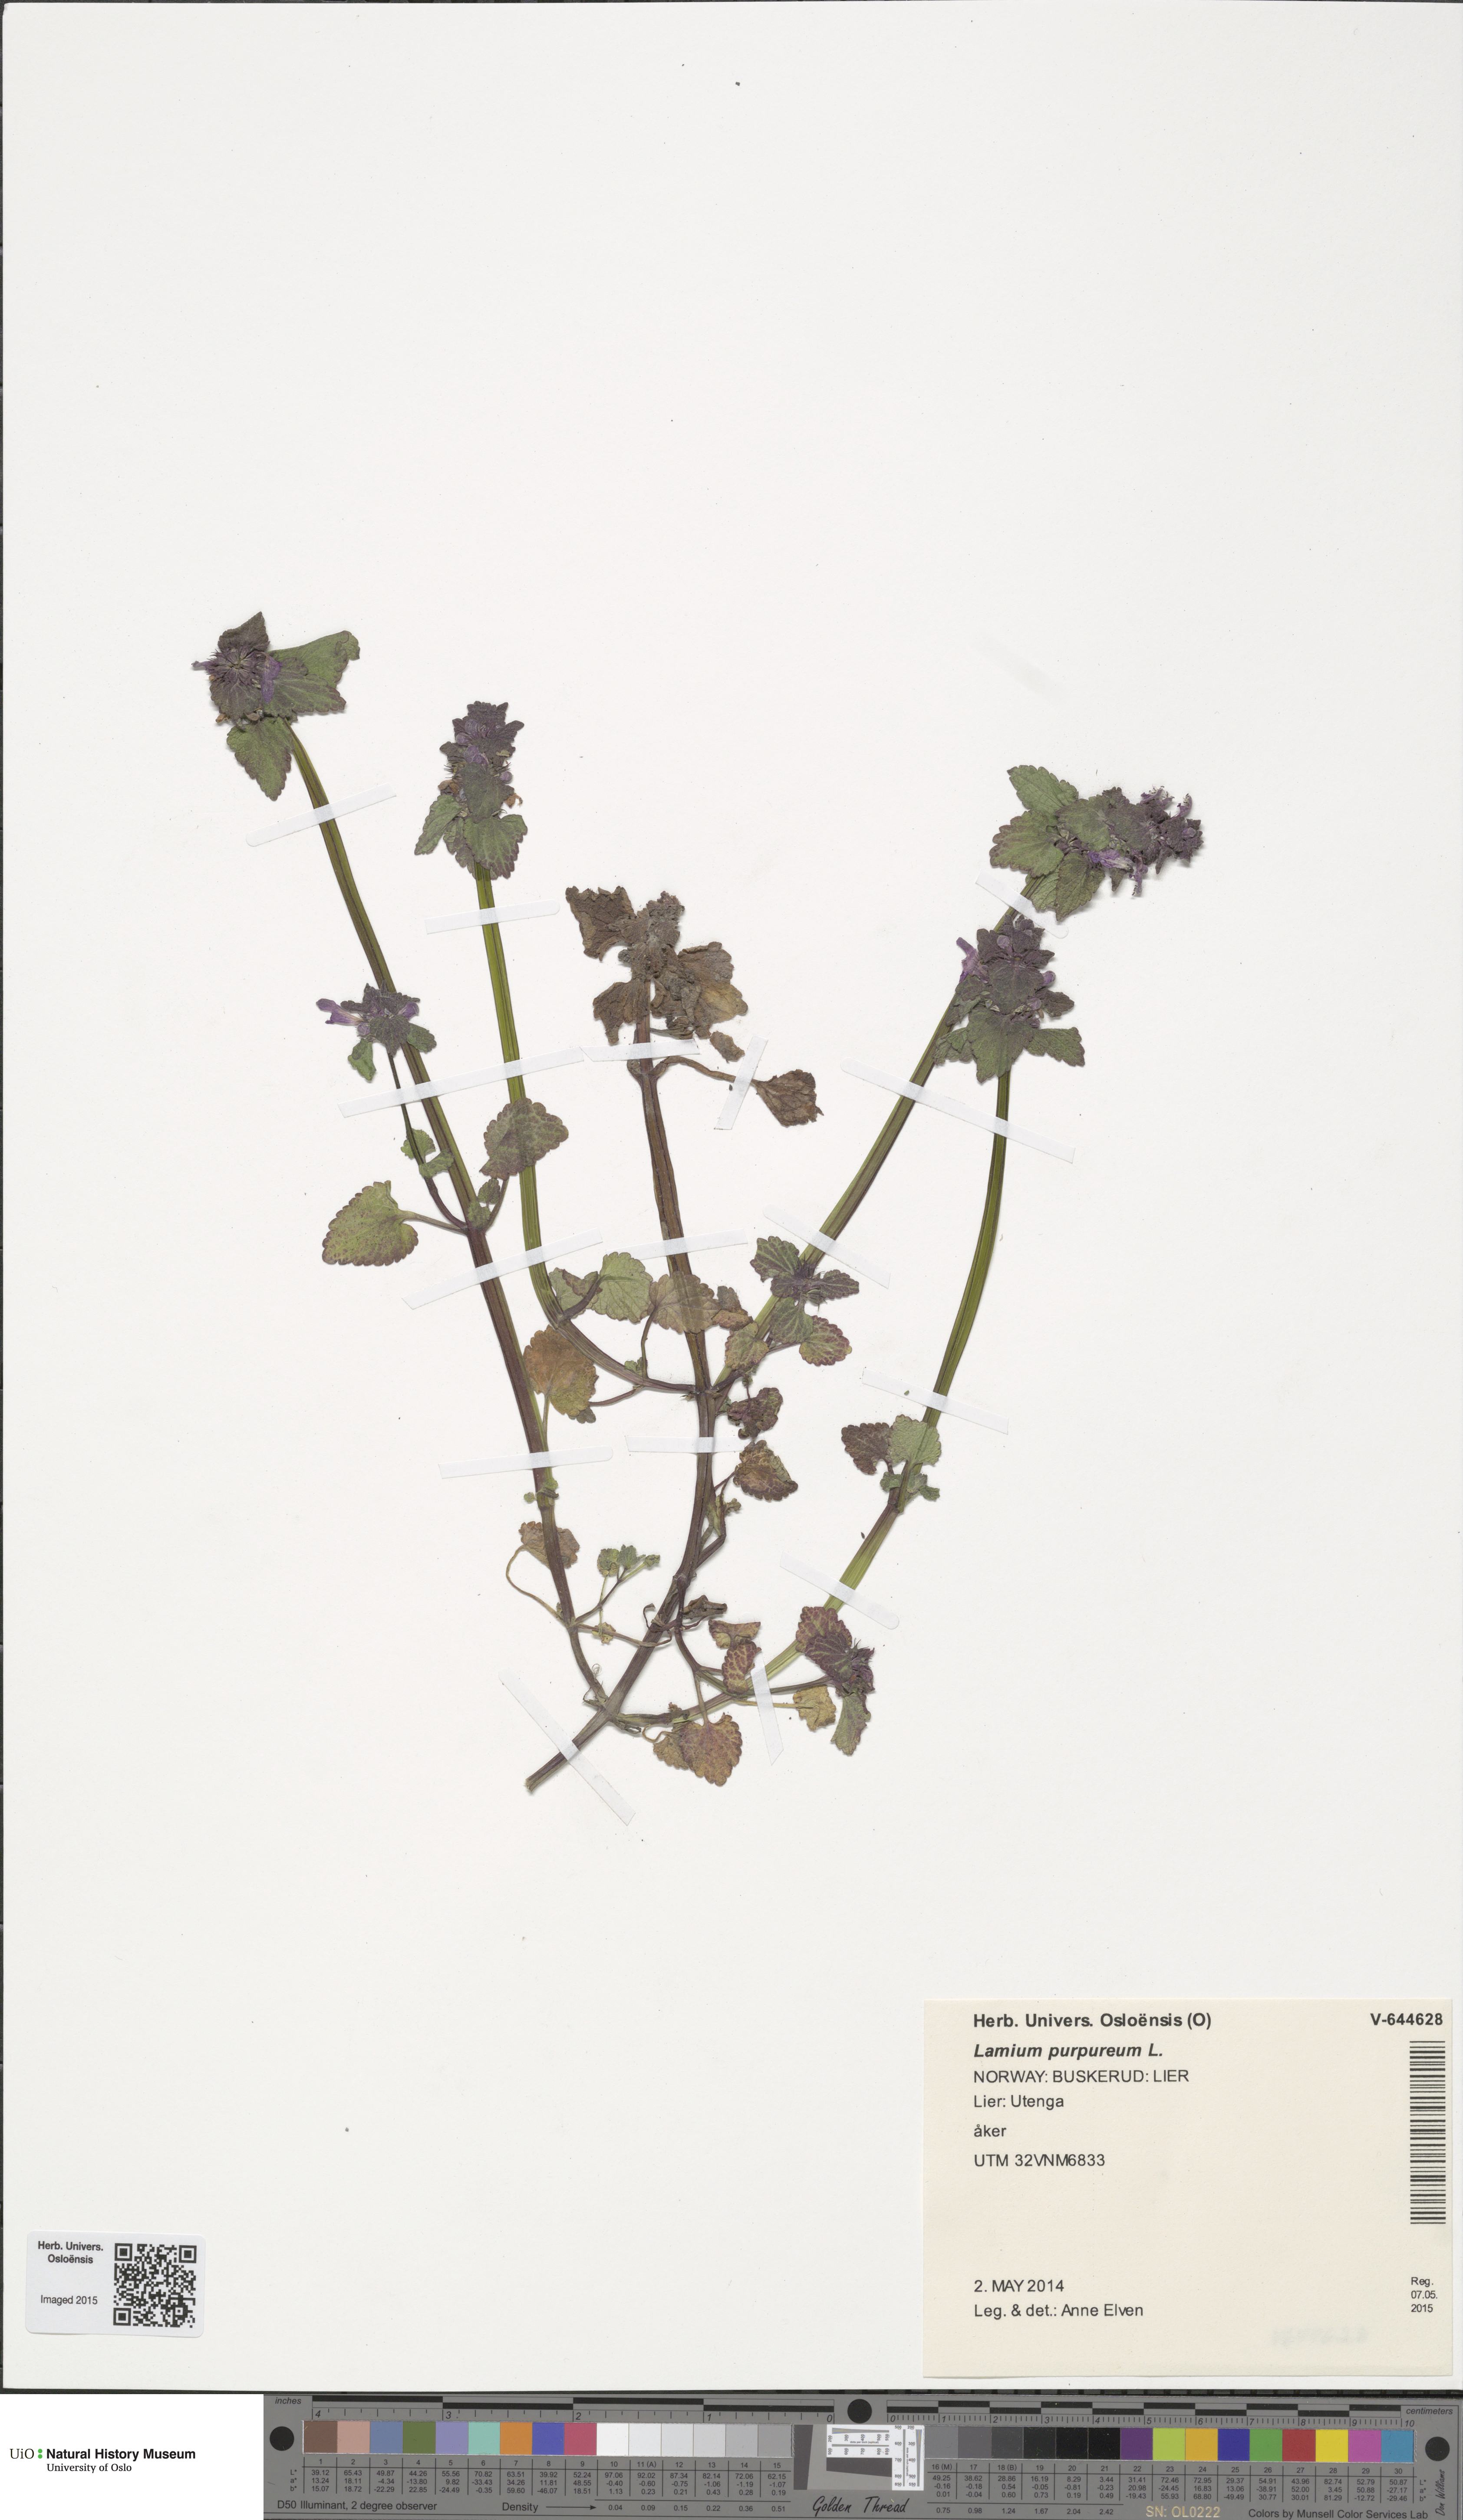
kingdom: Plantae
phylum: Tracheophyta
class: Magnoliopsida
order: Lamiales
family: Lamiaceae
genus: Lamium
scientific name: Lamium purpureum
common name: Red dead-nettle
